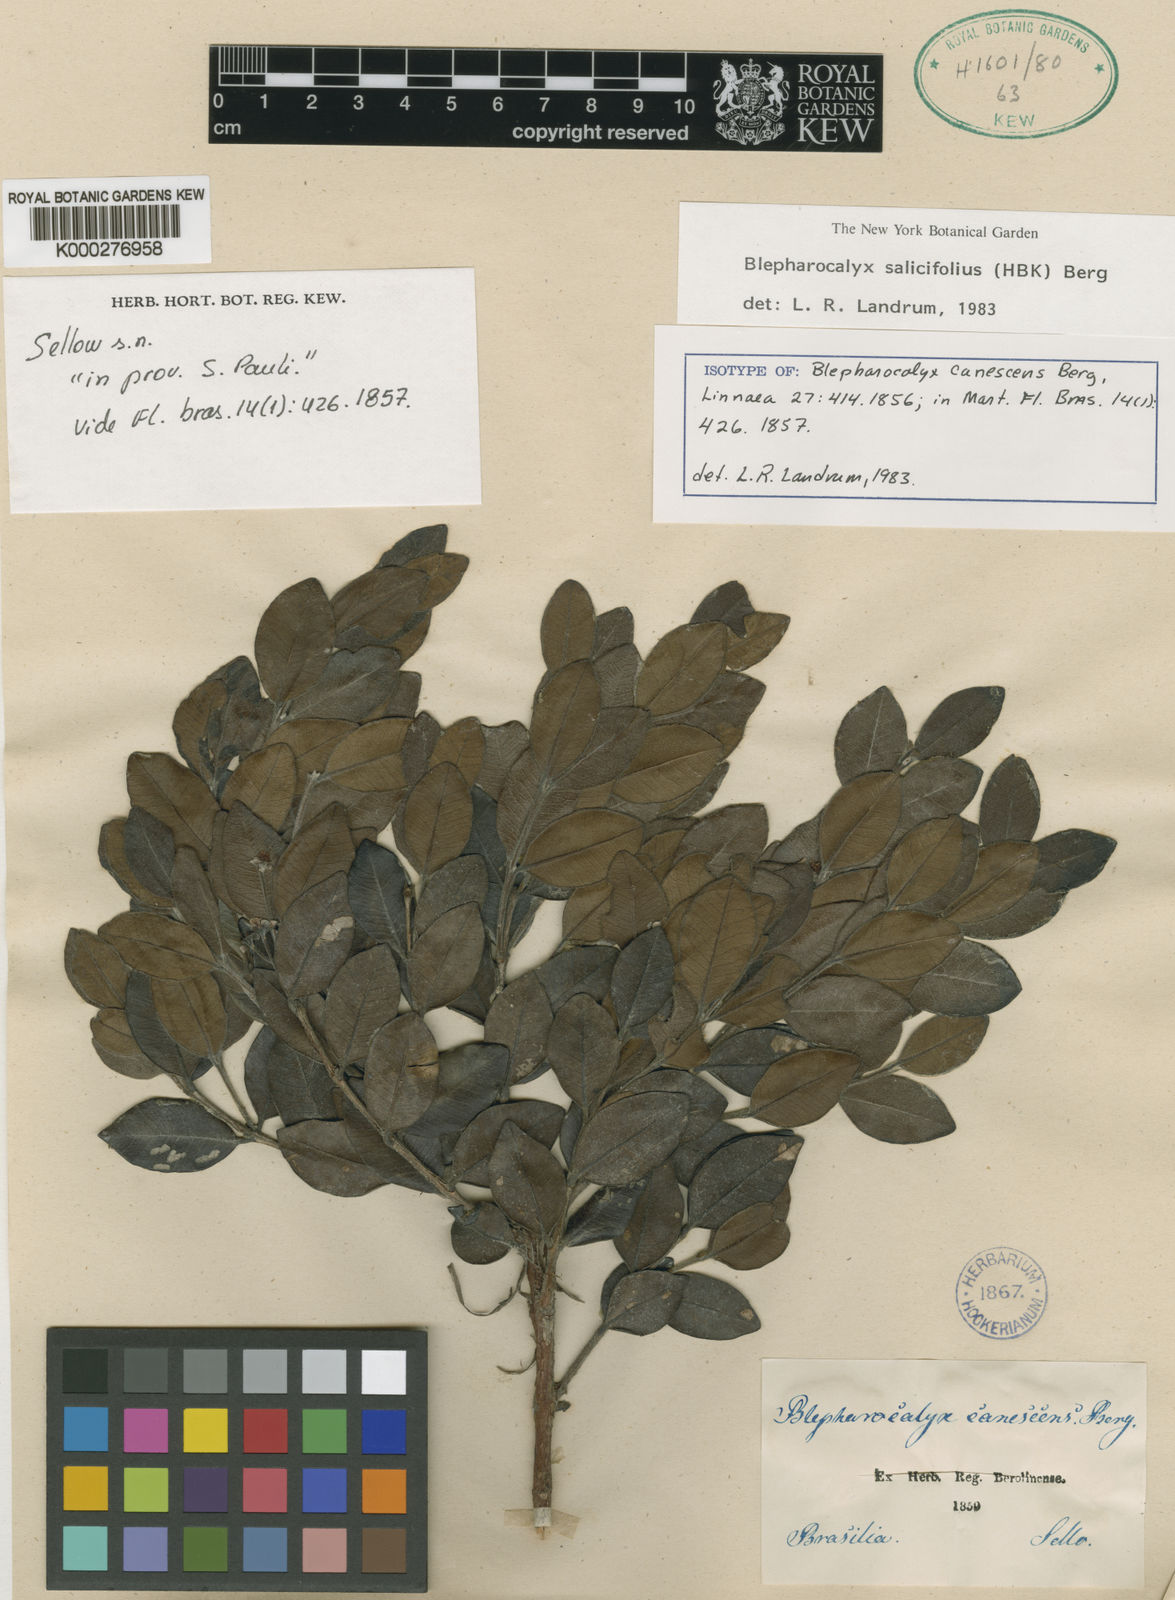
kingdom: Plantae
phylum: Tracheophyta
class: Magnoliopsida
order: Myrtales
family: Myrtaceae
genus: Blepharocalyx
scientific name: Blepharocalyx salicifolius
